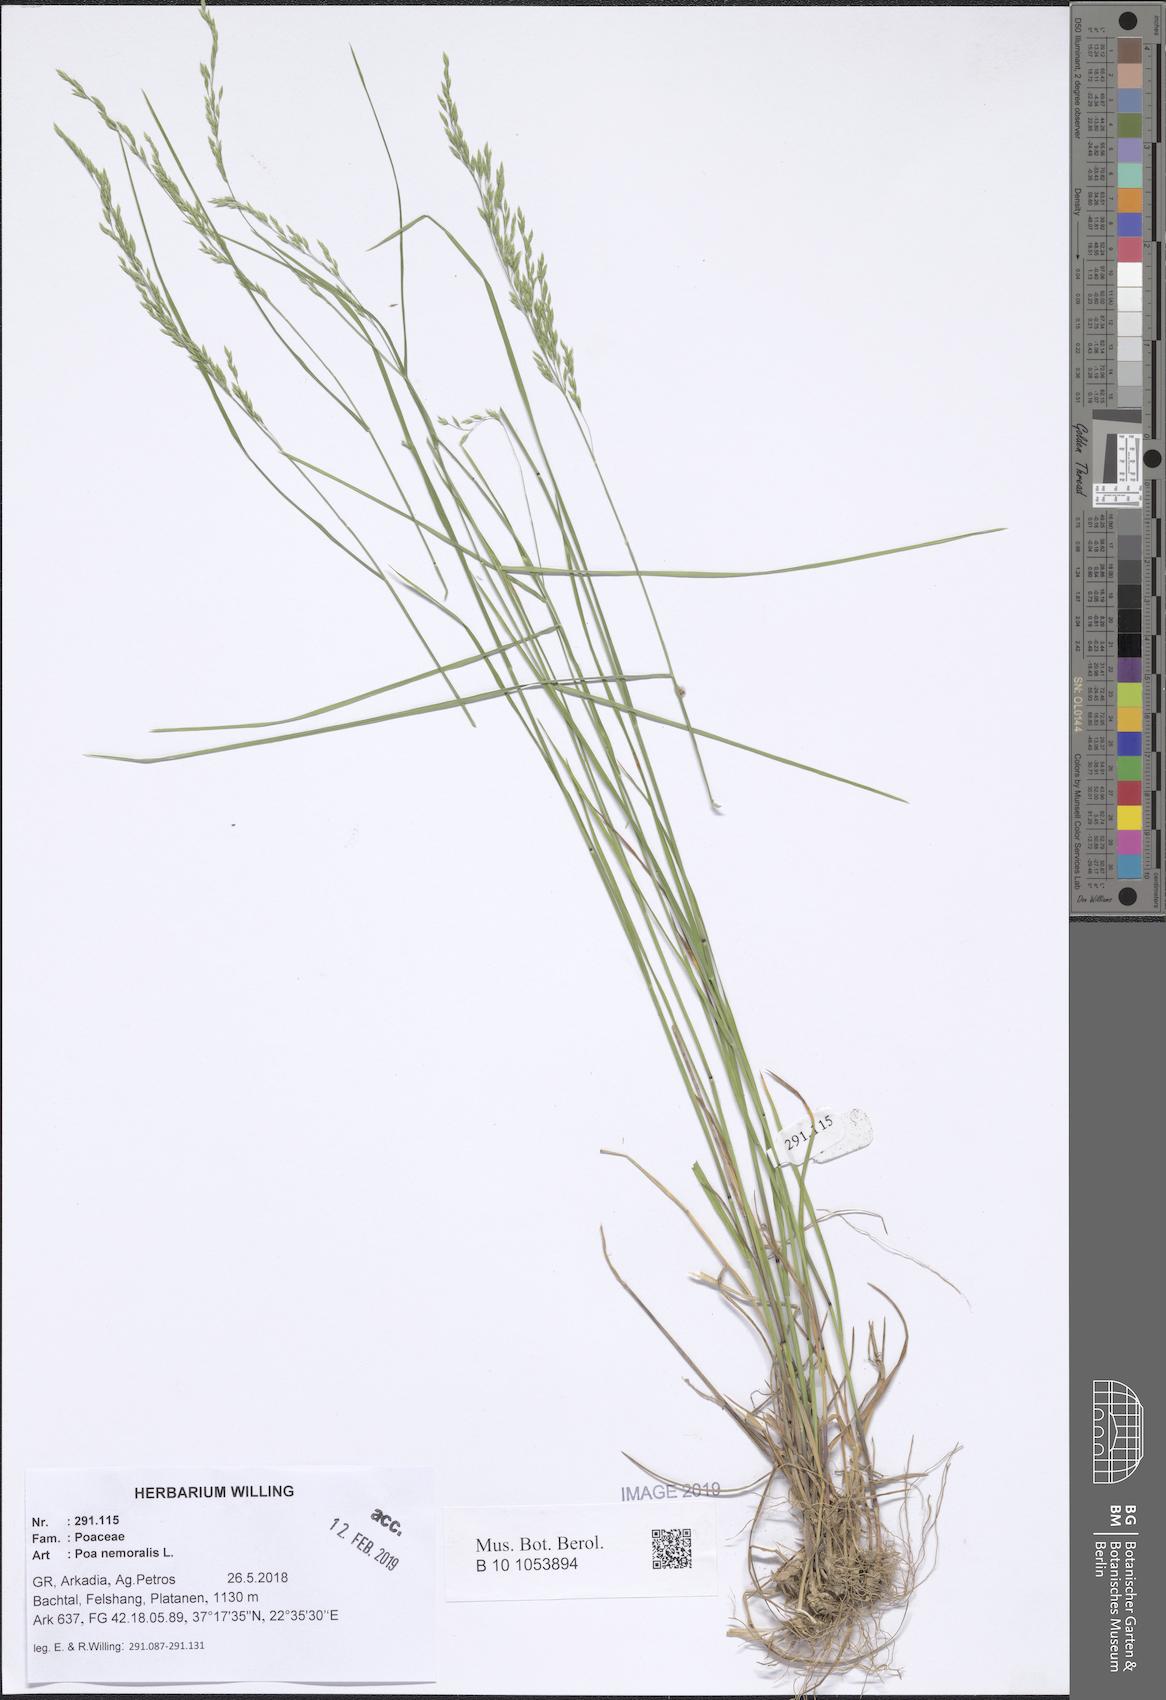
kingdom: Plantae
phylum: Tracheophyta
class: Liliopsida
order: Poales
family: Poaceae
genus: Poa
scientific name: Poa nemoralis
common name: Wood bluegrass
